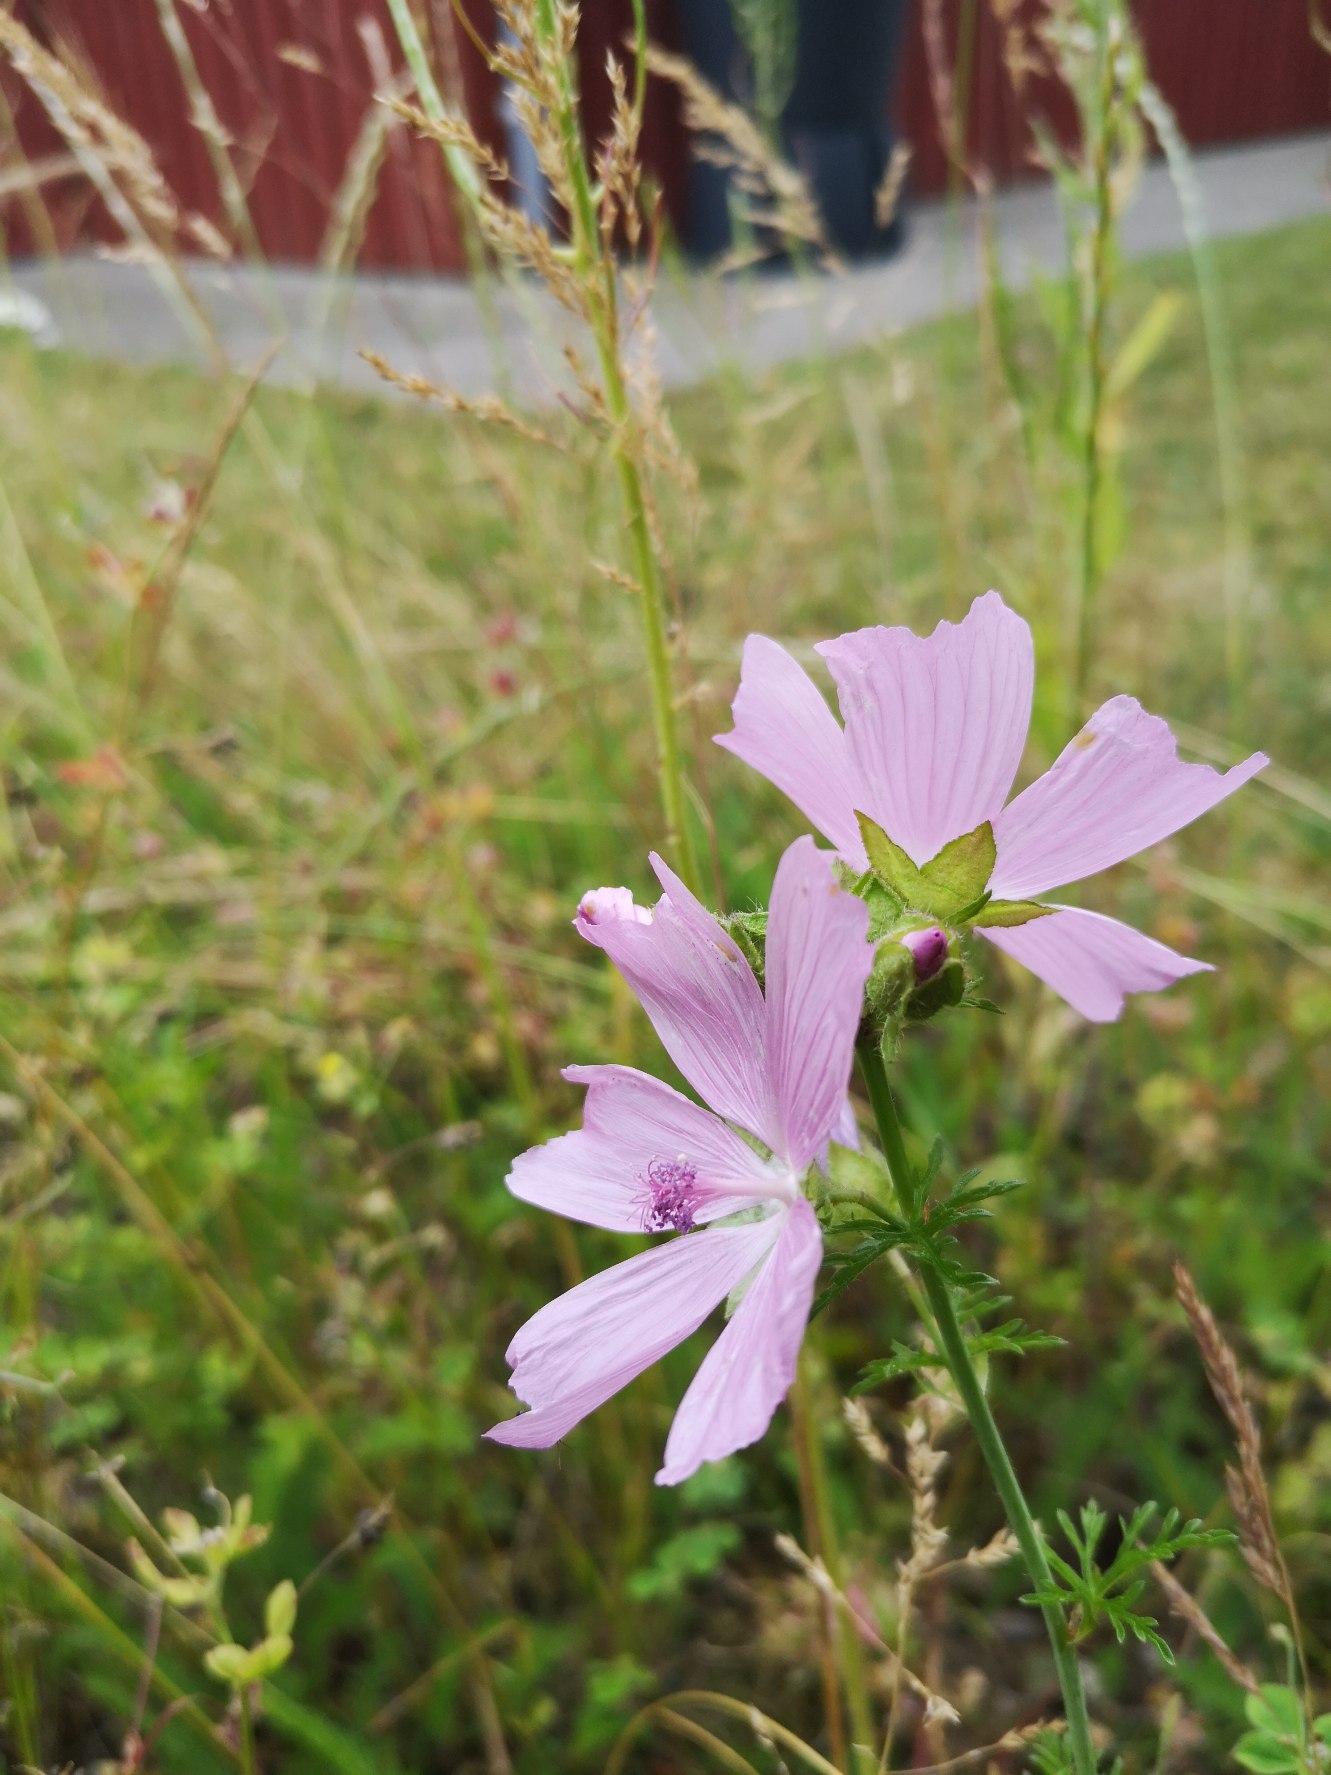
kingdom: Plantae
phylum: Tracheophyta
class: Magnoliopsida
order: Malvales
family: Malvaceae
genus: Malva
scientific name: Malva moschata
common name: Moskus-katost
